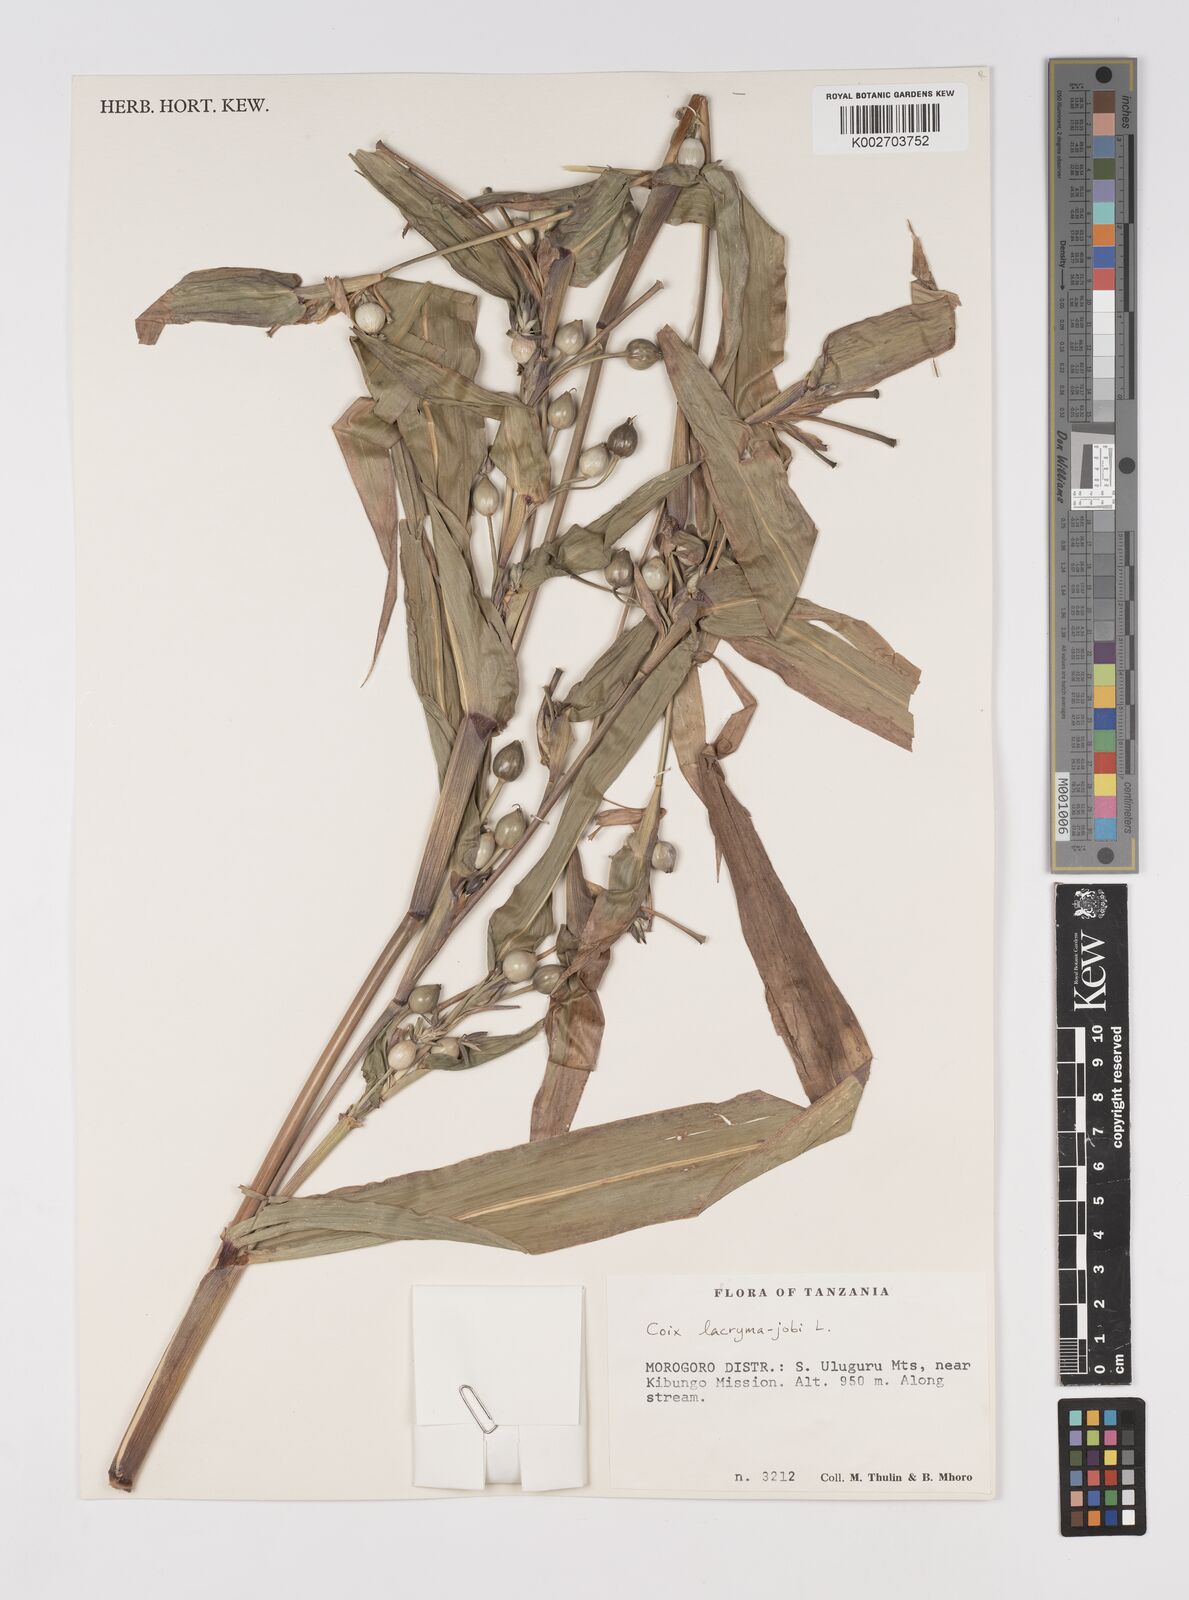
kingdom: Plantae
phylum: Tracheophyta
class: Liliopsida
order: Poales
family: Poaceae
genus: Coix
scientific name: Coix lacryma-jobi
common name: Job's tears
